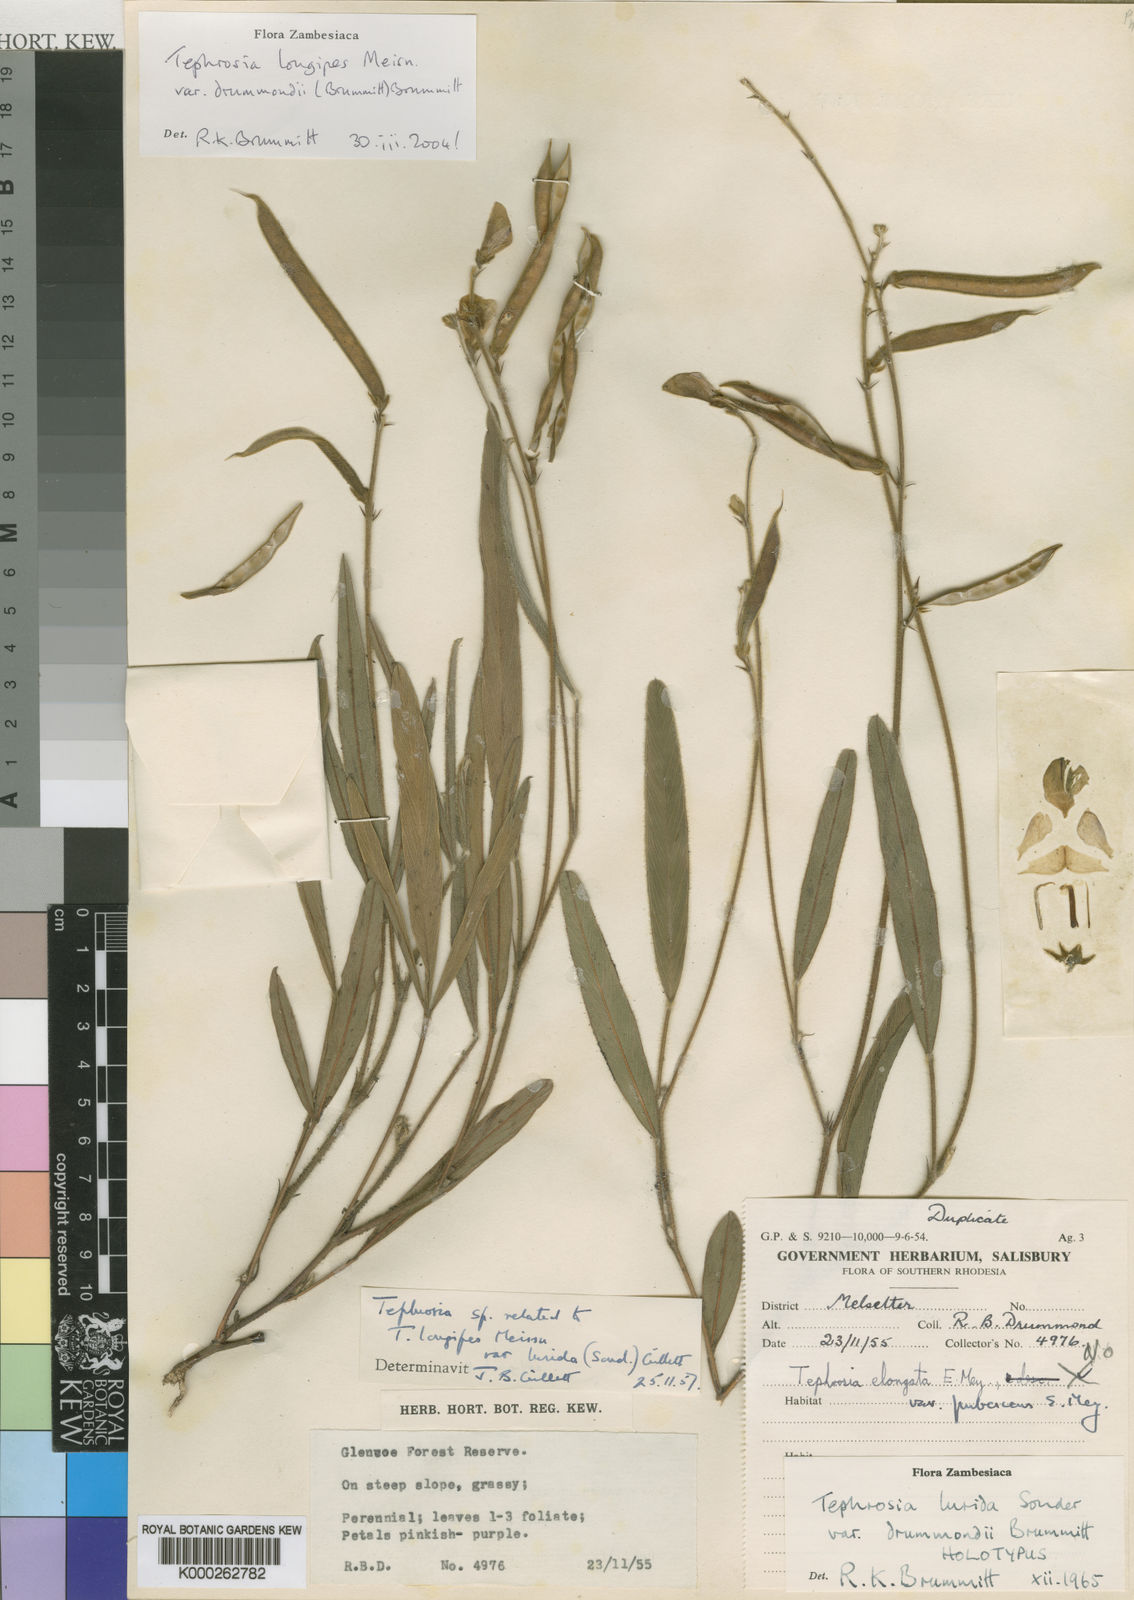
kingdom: Plantae
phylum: Tracheophyta
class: Magnoliopsida
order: Fabales
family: Fabaceae
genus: Tephrosia
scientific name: Tephrosia longipes
